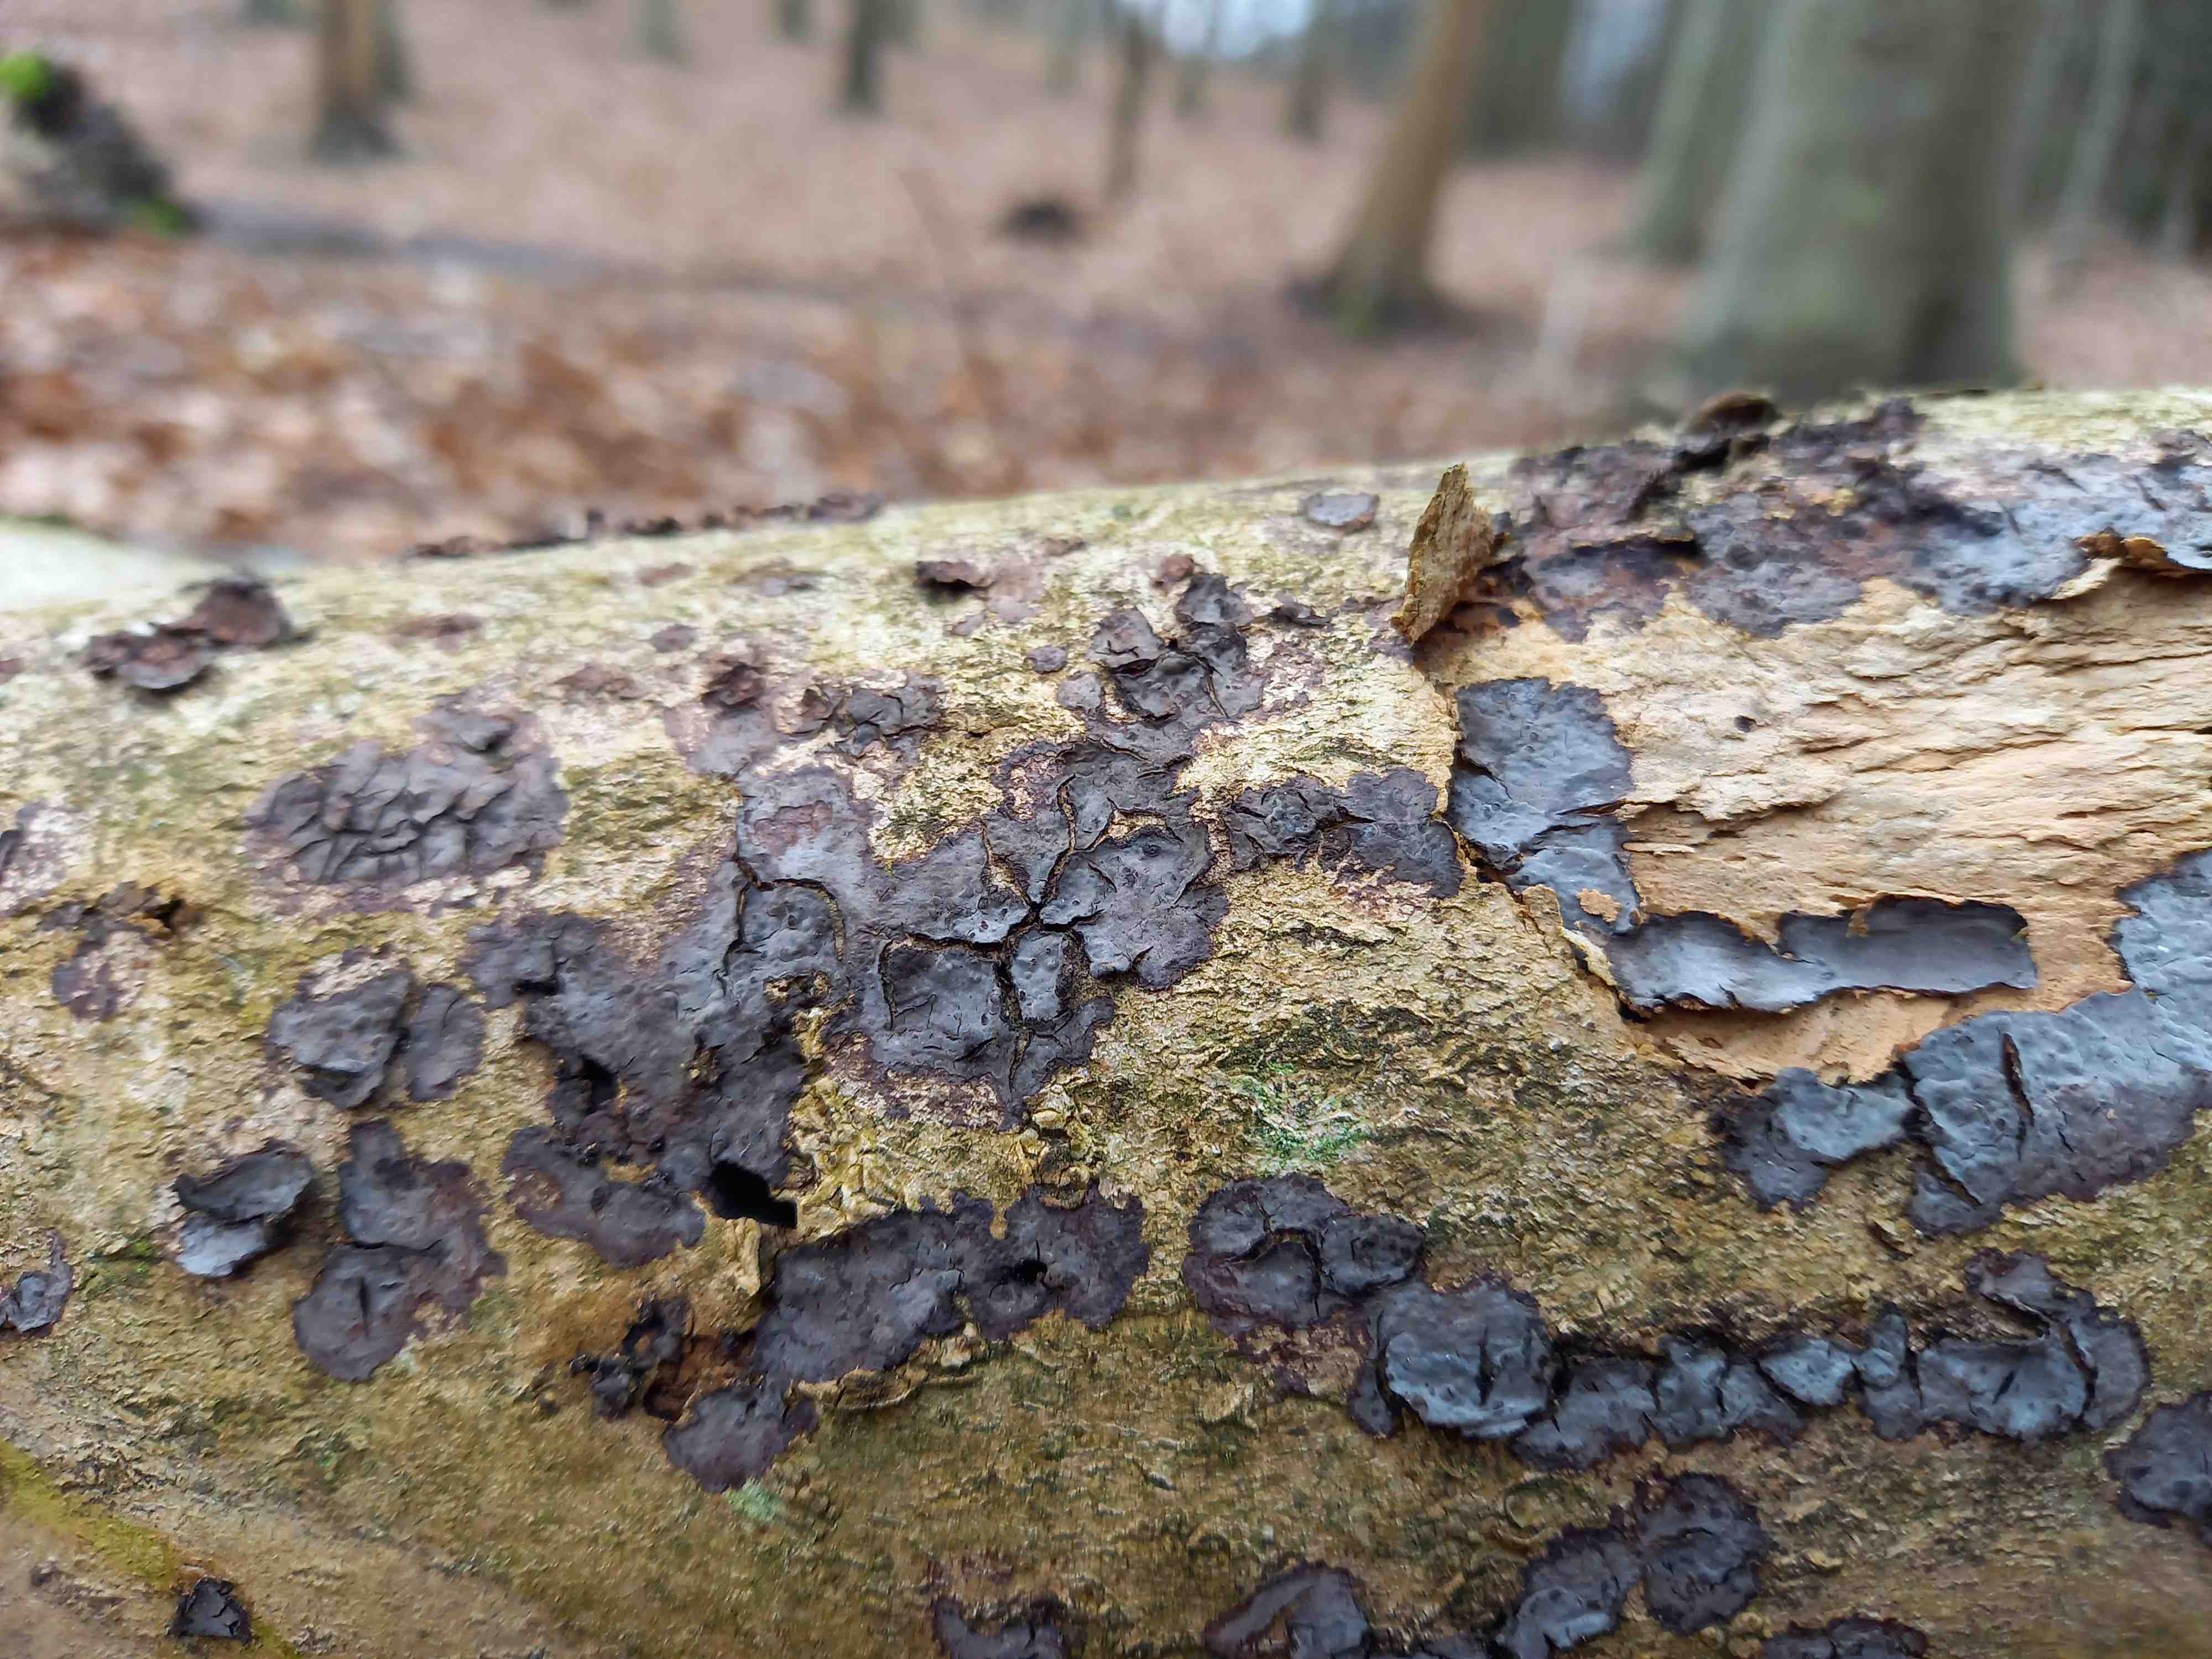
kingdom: Fungi
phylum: Basidiomycota
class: Agaricomycetes
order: Russulales
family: Peniophoraceae
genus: Peniophora
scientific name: Peniophora limitata
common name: mørkrandet voksskind
